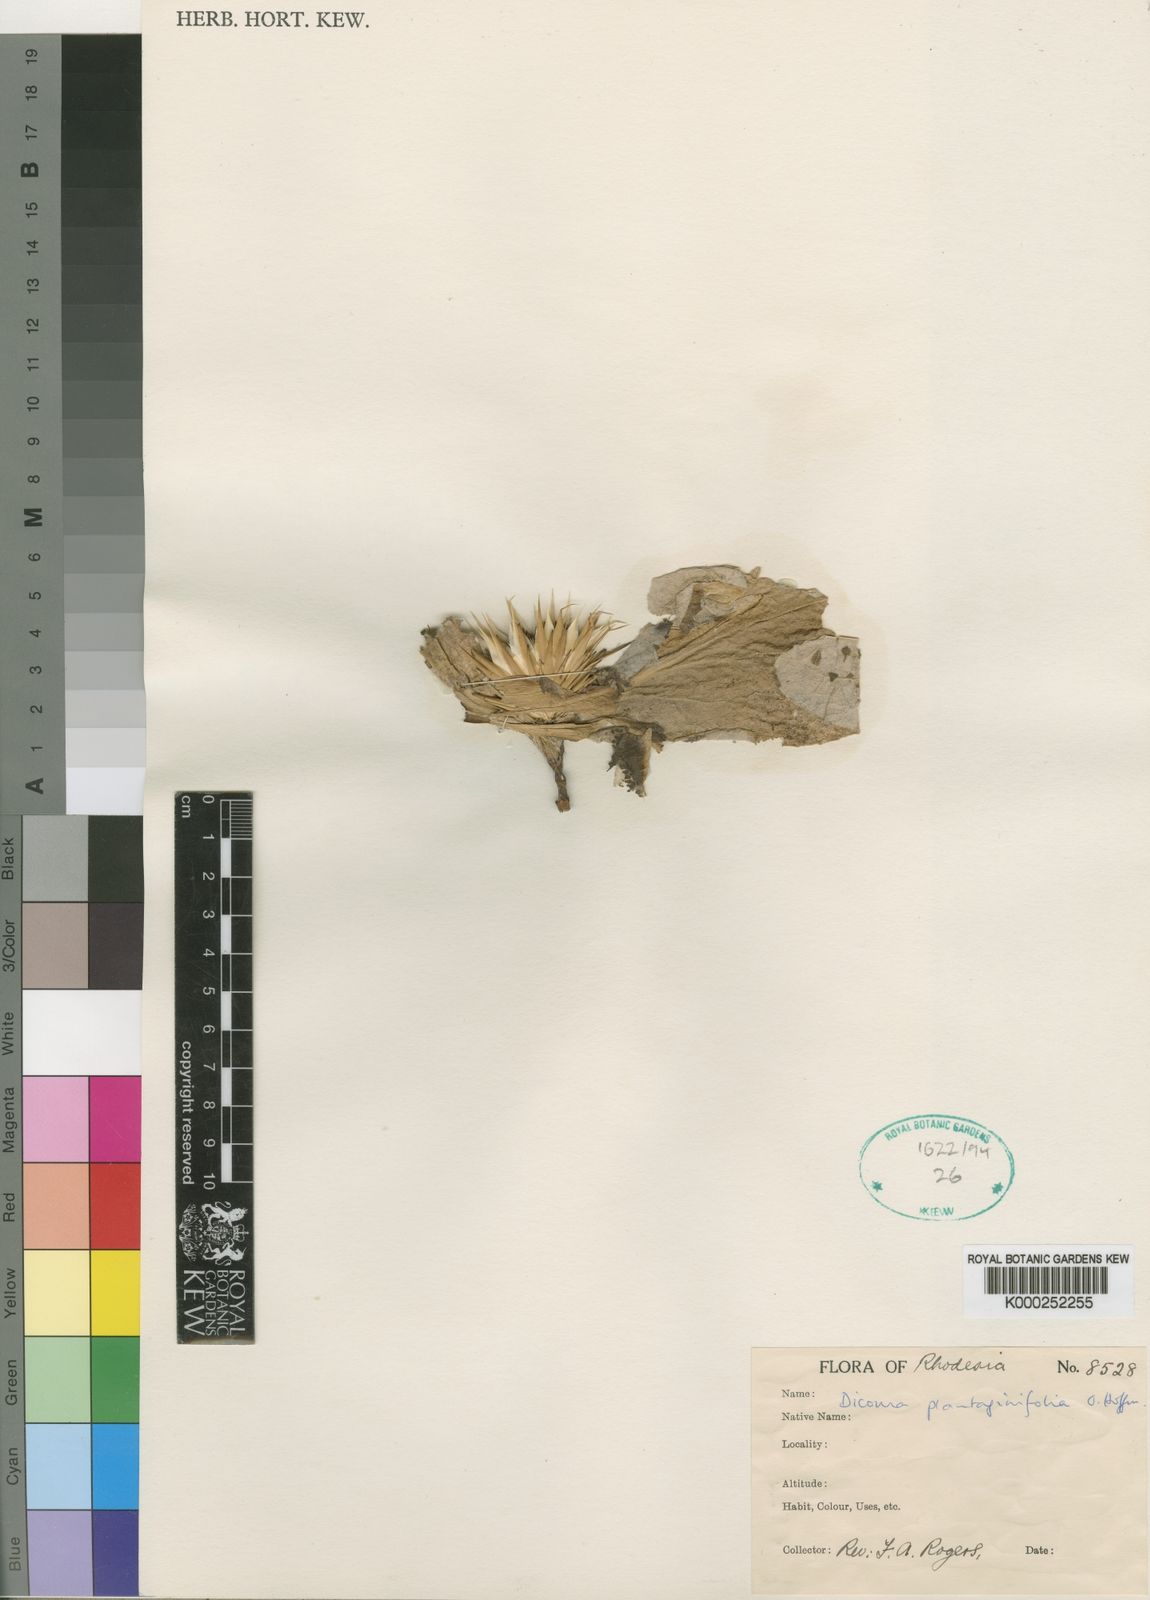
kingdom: Plantae
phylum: Tracheophyta
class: Magnoliopsida
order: Asterales
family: Asteraceae
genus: Macledium
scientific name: Macledium plantaginifolium
